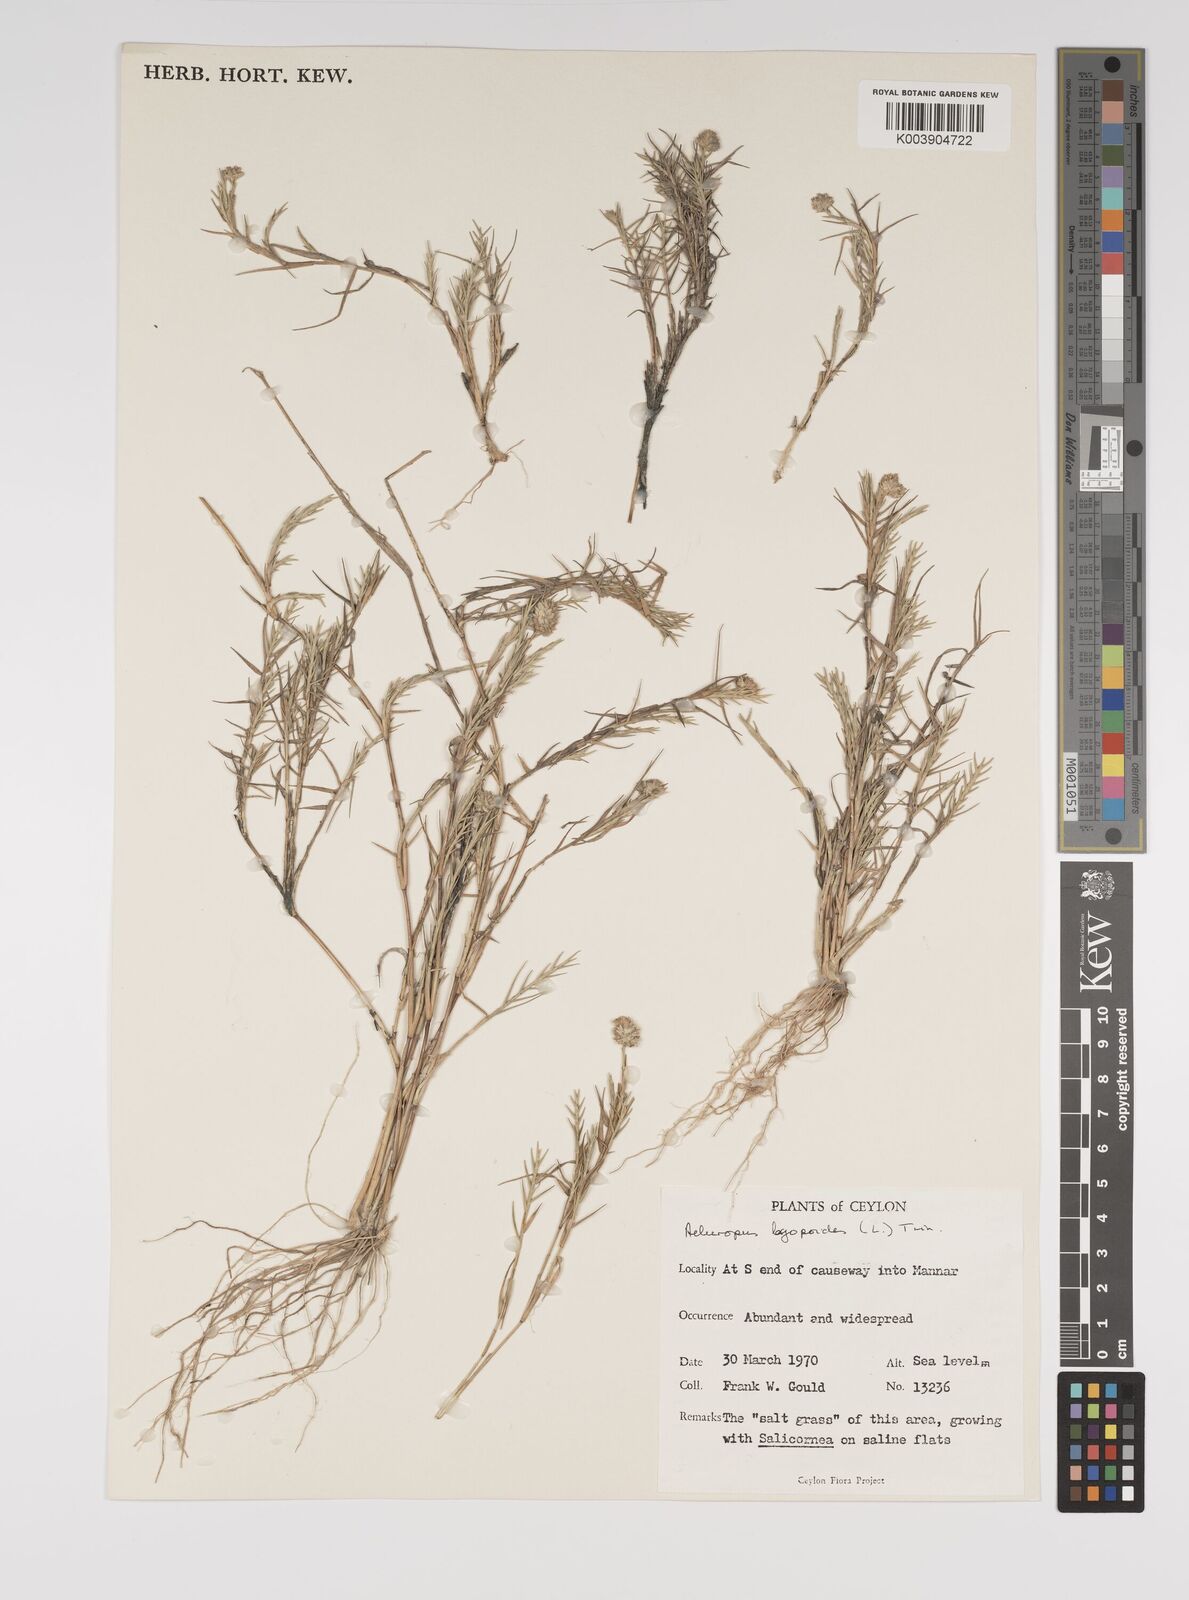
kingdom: Plantae
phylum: Tracheophyta
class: Liliopsida
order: Poales
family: Poaceae
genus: Aeluropus
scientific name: Aeluropus lagopoides
